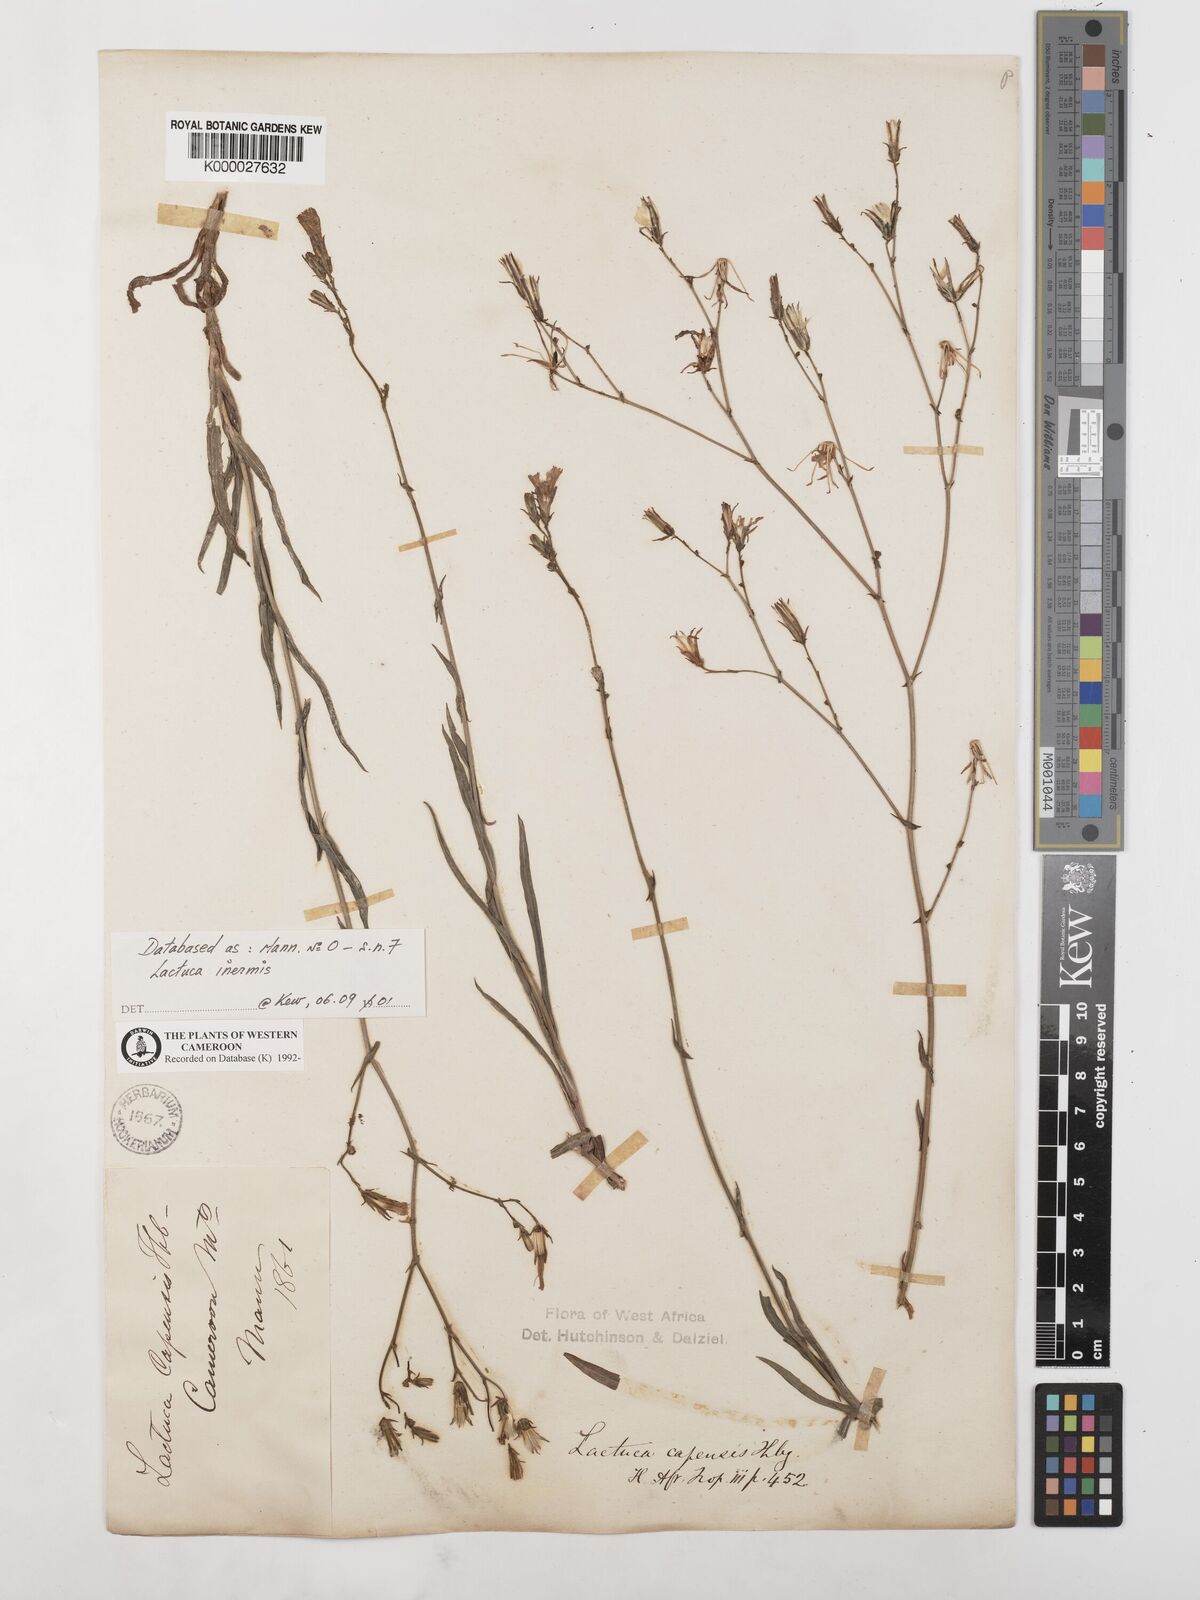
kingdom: Plantae
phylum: Tracheophyta
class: Magnoliopsida
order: Asterales
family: Asteraceae
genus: Lactuca
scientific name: Lactuca inermis
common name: Wild lettuce
